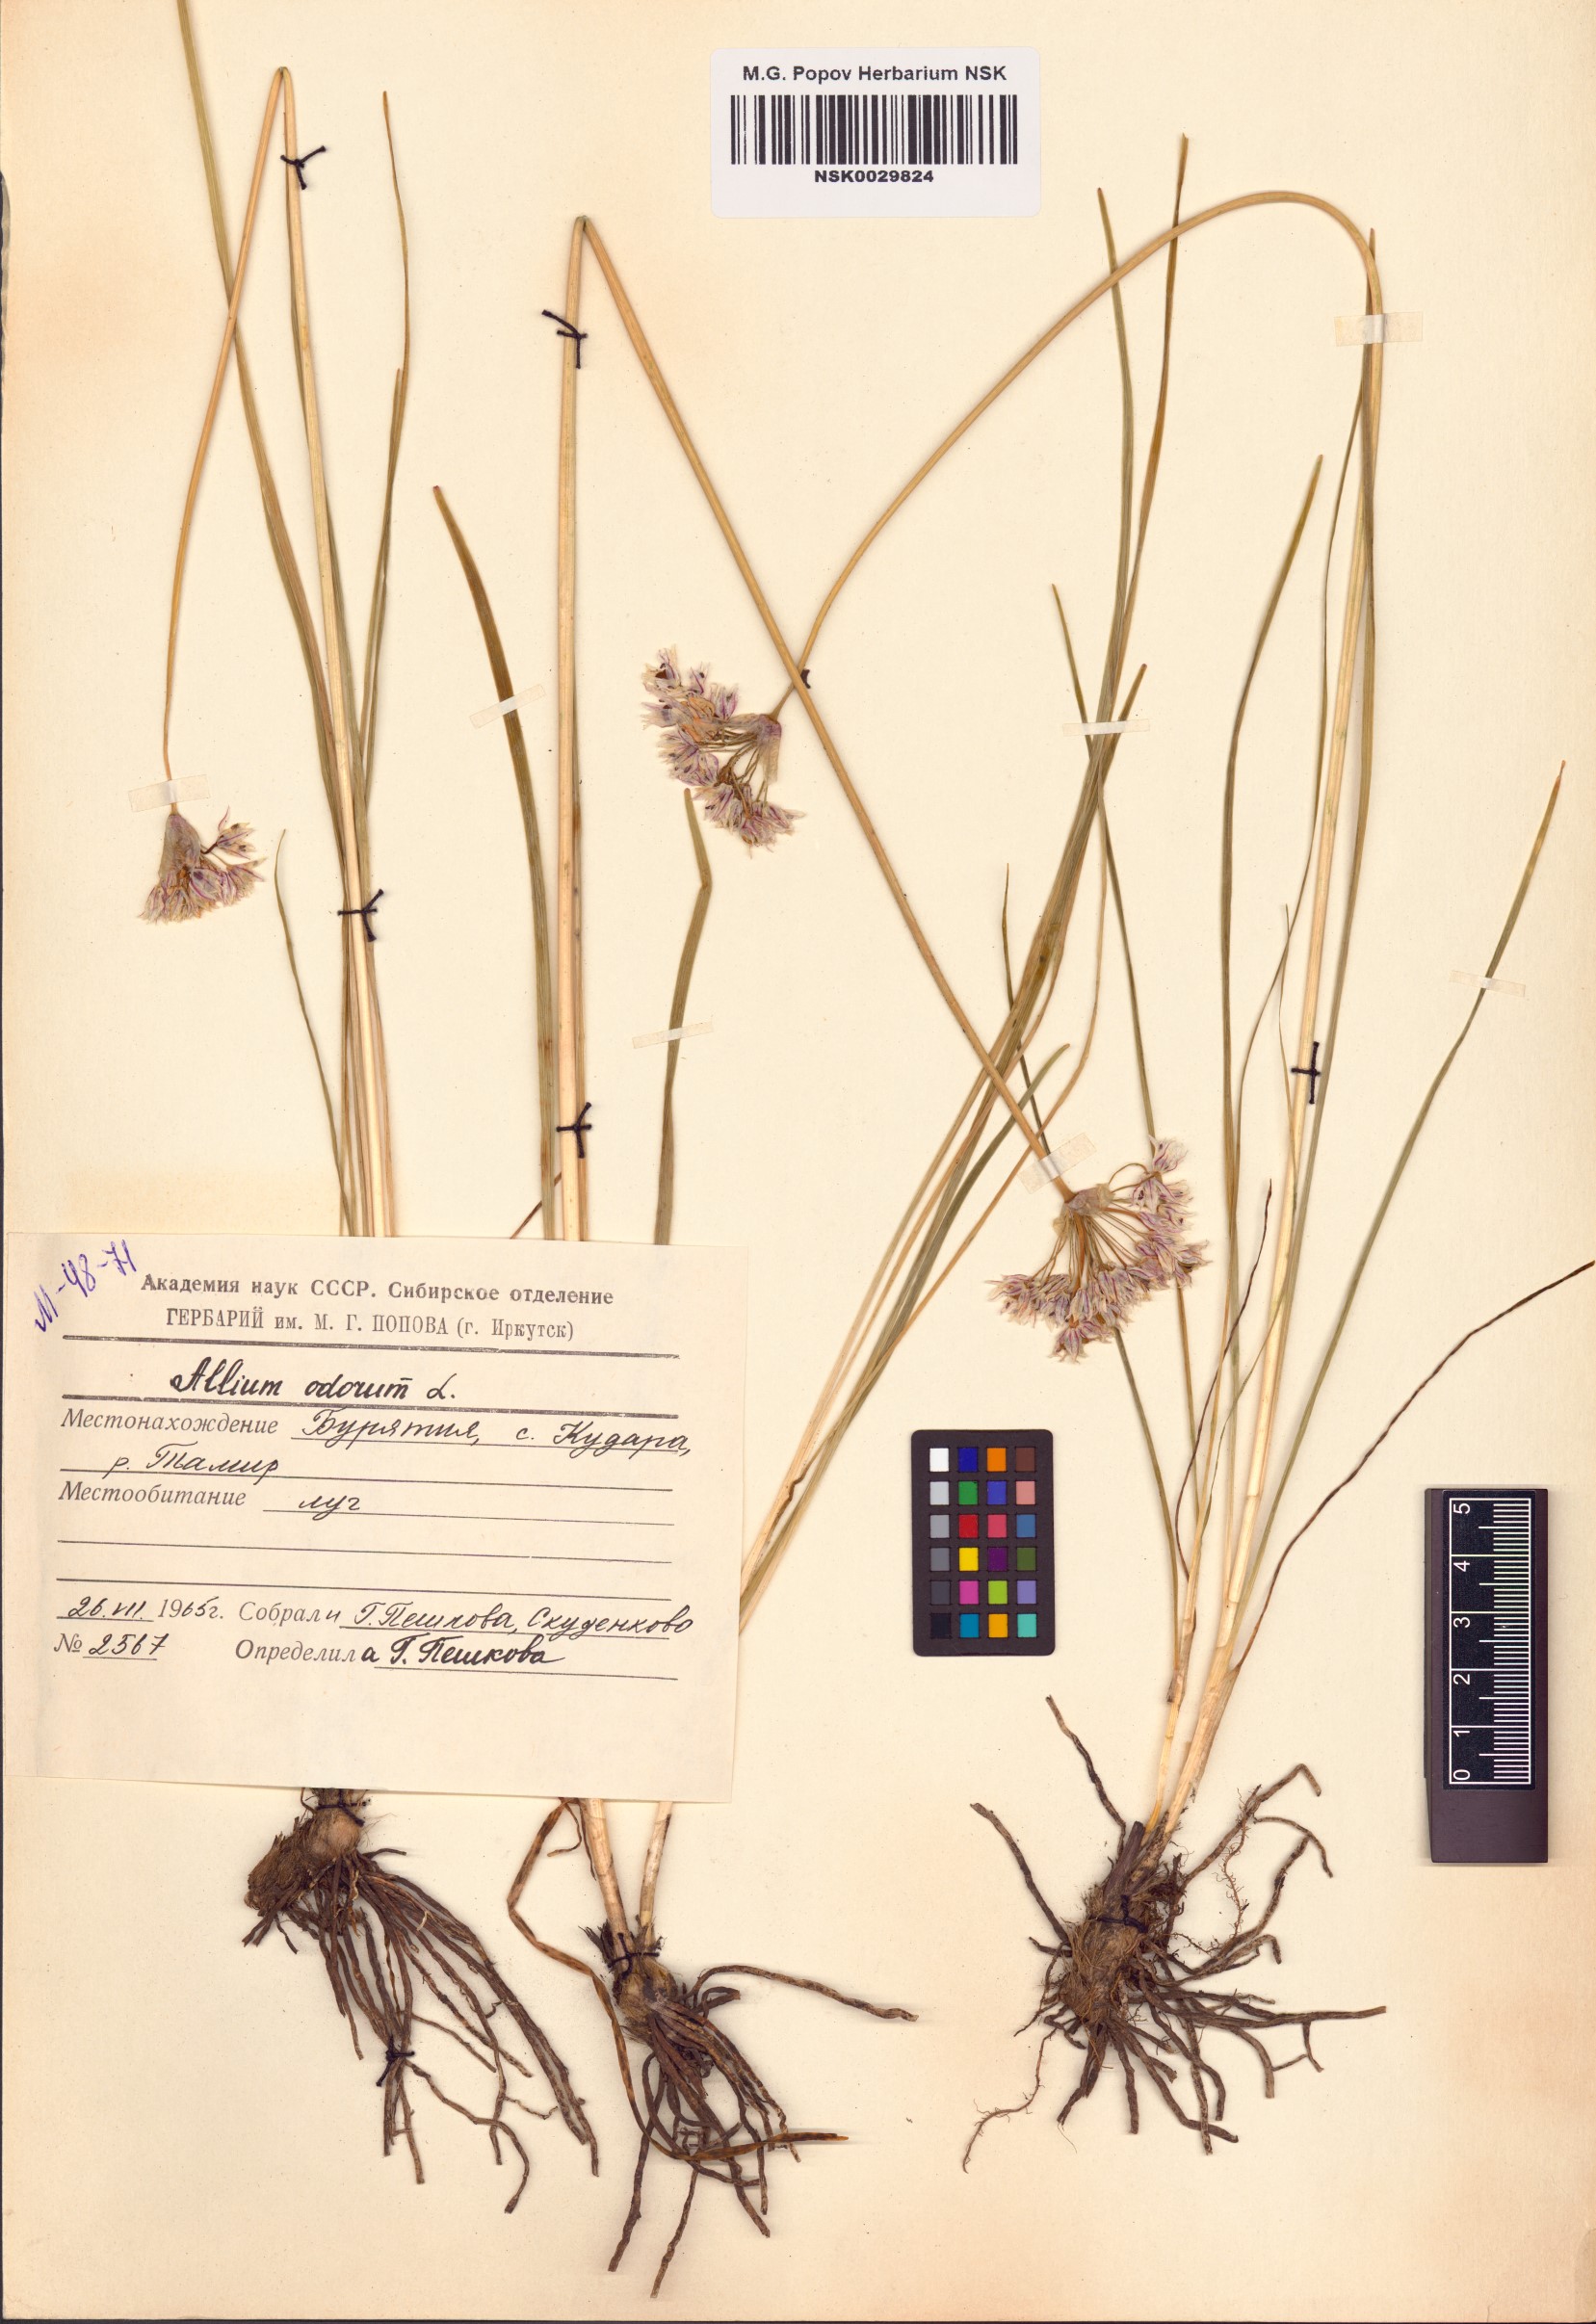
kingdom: Plantae
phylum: Tracheophyta
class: Liliopsida
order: Asparagales
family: Amaryllidaceae
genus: Allium
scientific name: Allium ramosum
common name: Fragrant garlic
